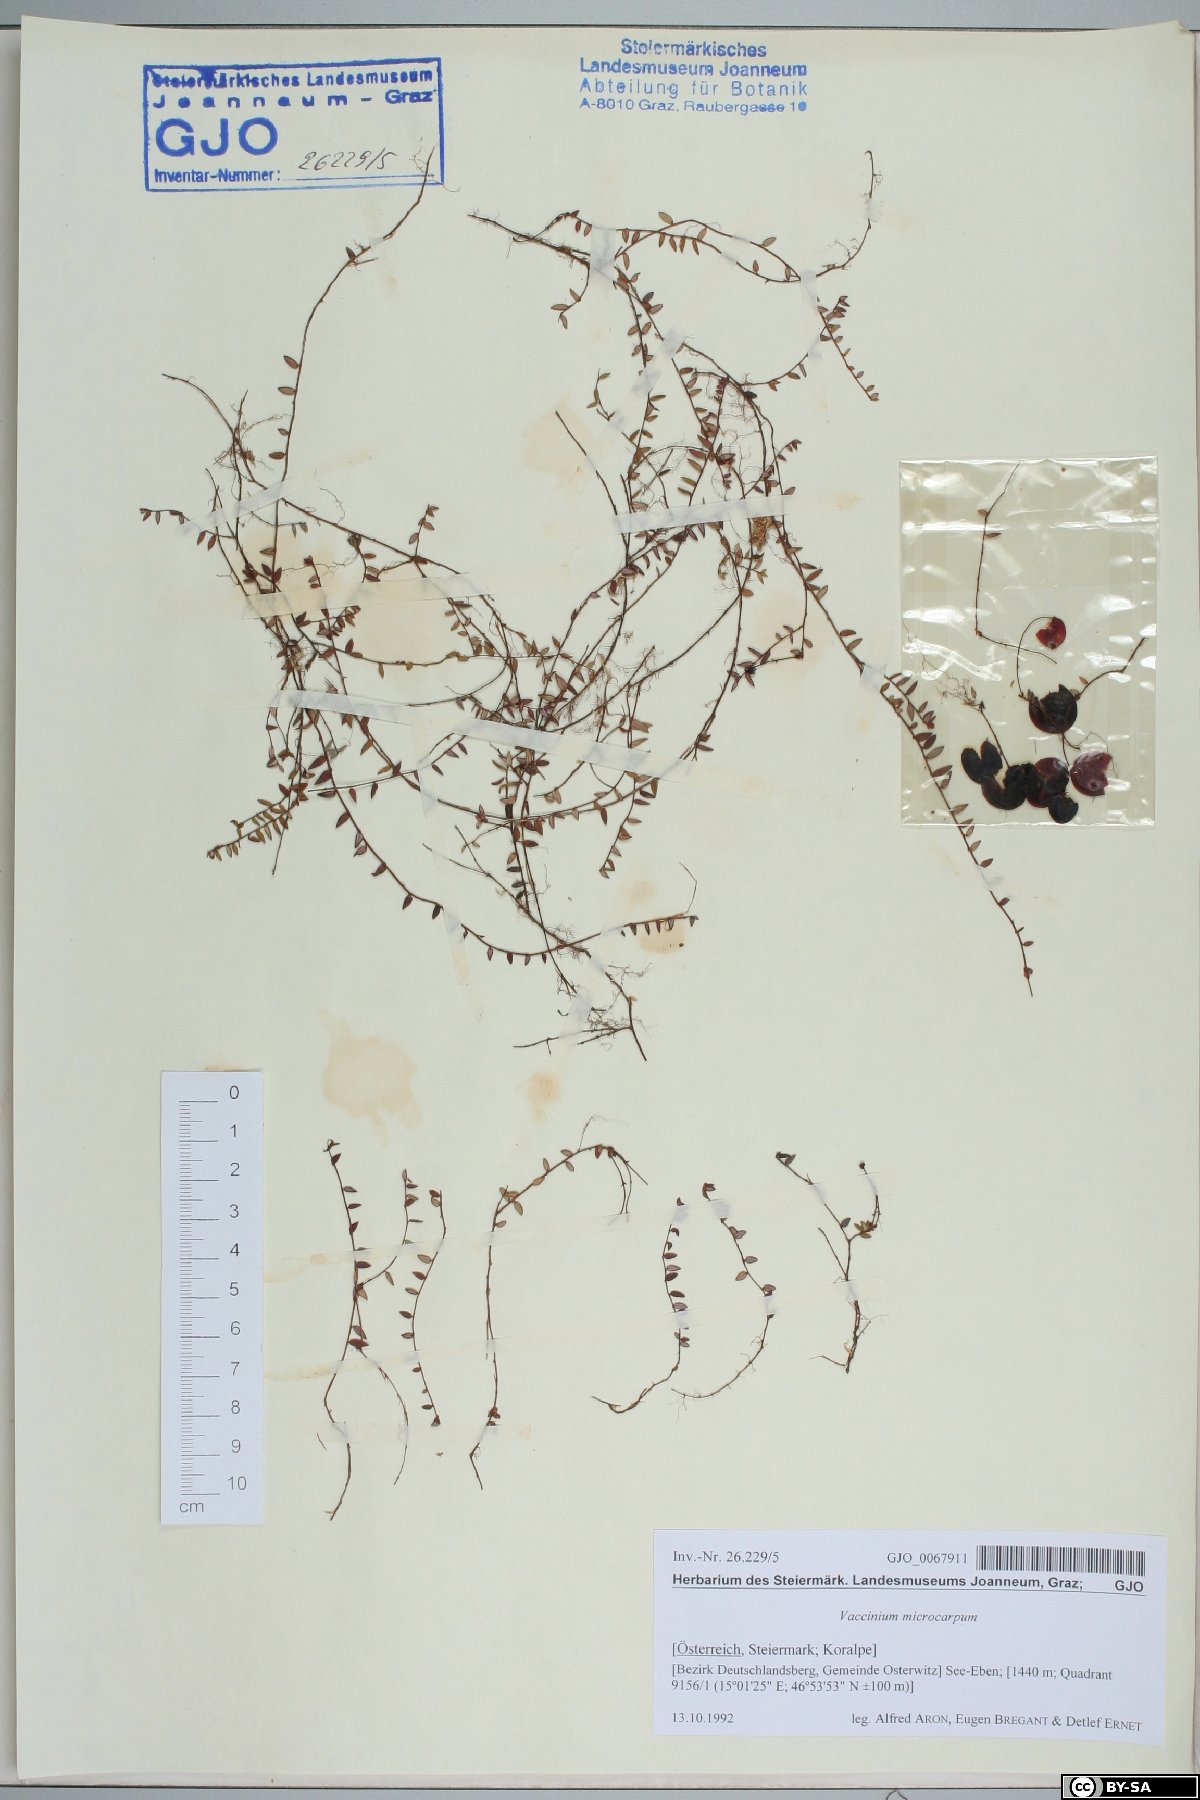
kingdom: Plantae
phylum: Tracheophyta
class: Magnoliopsida
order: Ericales
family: Ericaceae
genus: Vaccinium
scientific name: Vaccinium microcarpum
